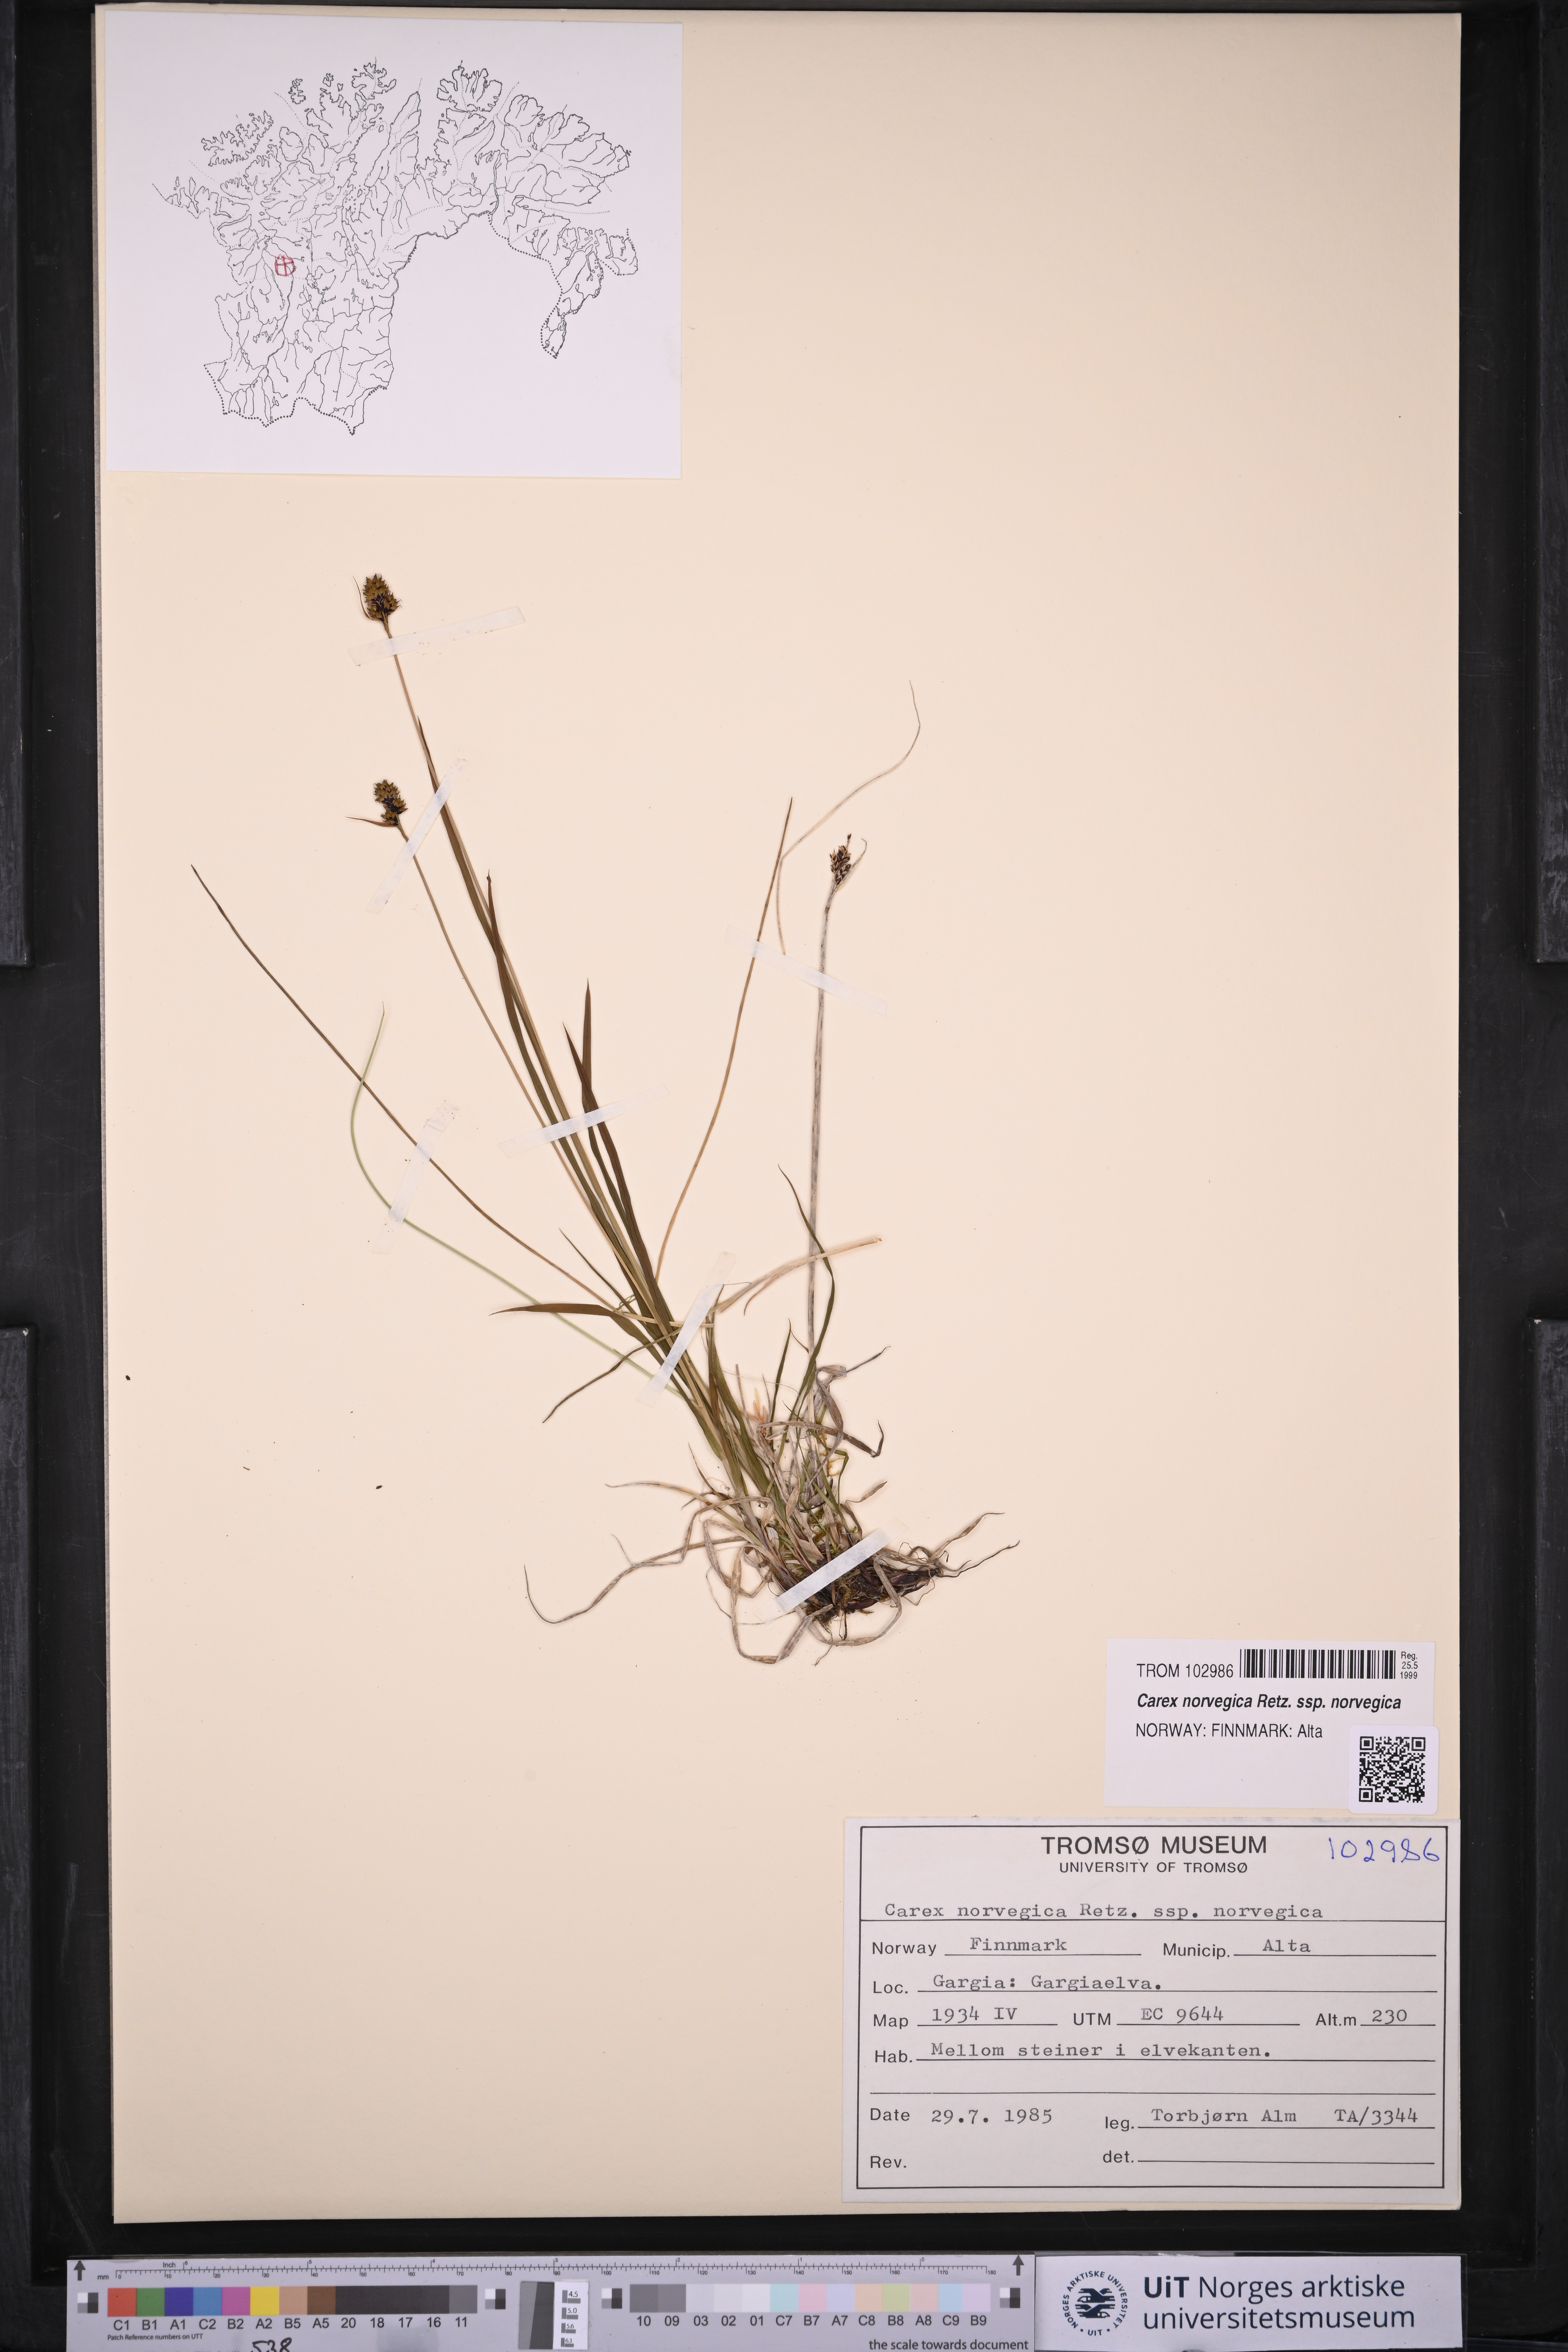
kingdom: Plantae
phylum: Tracheophyta
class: Liliopsida
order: Poales
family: Cyperaceae
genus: Carex
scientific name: Carex norvegica
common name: Close-headed alpine-sedge
